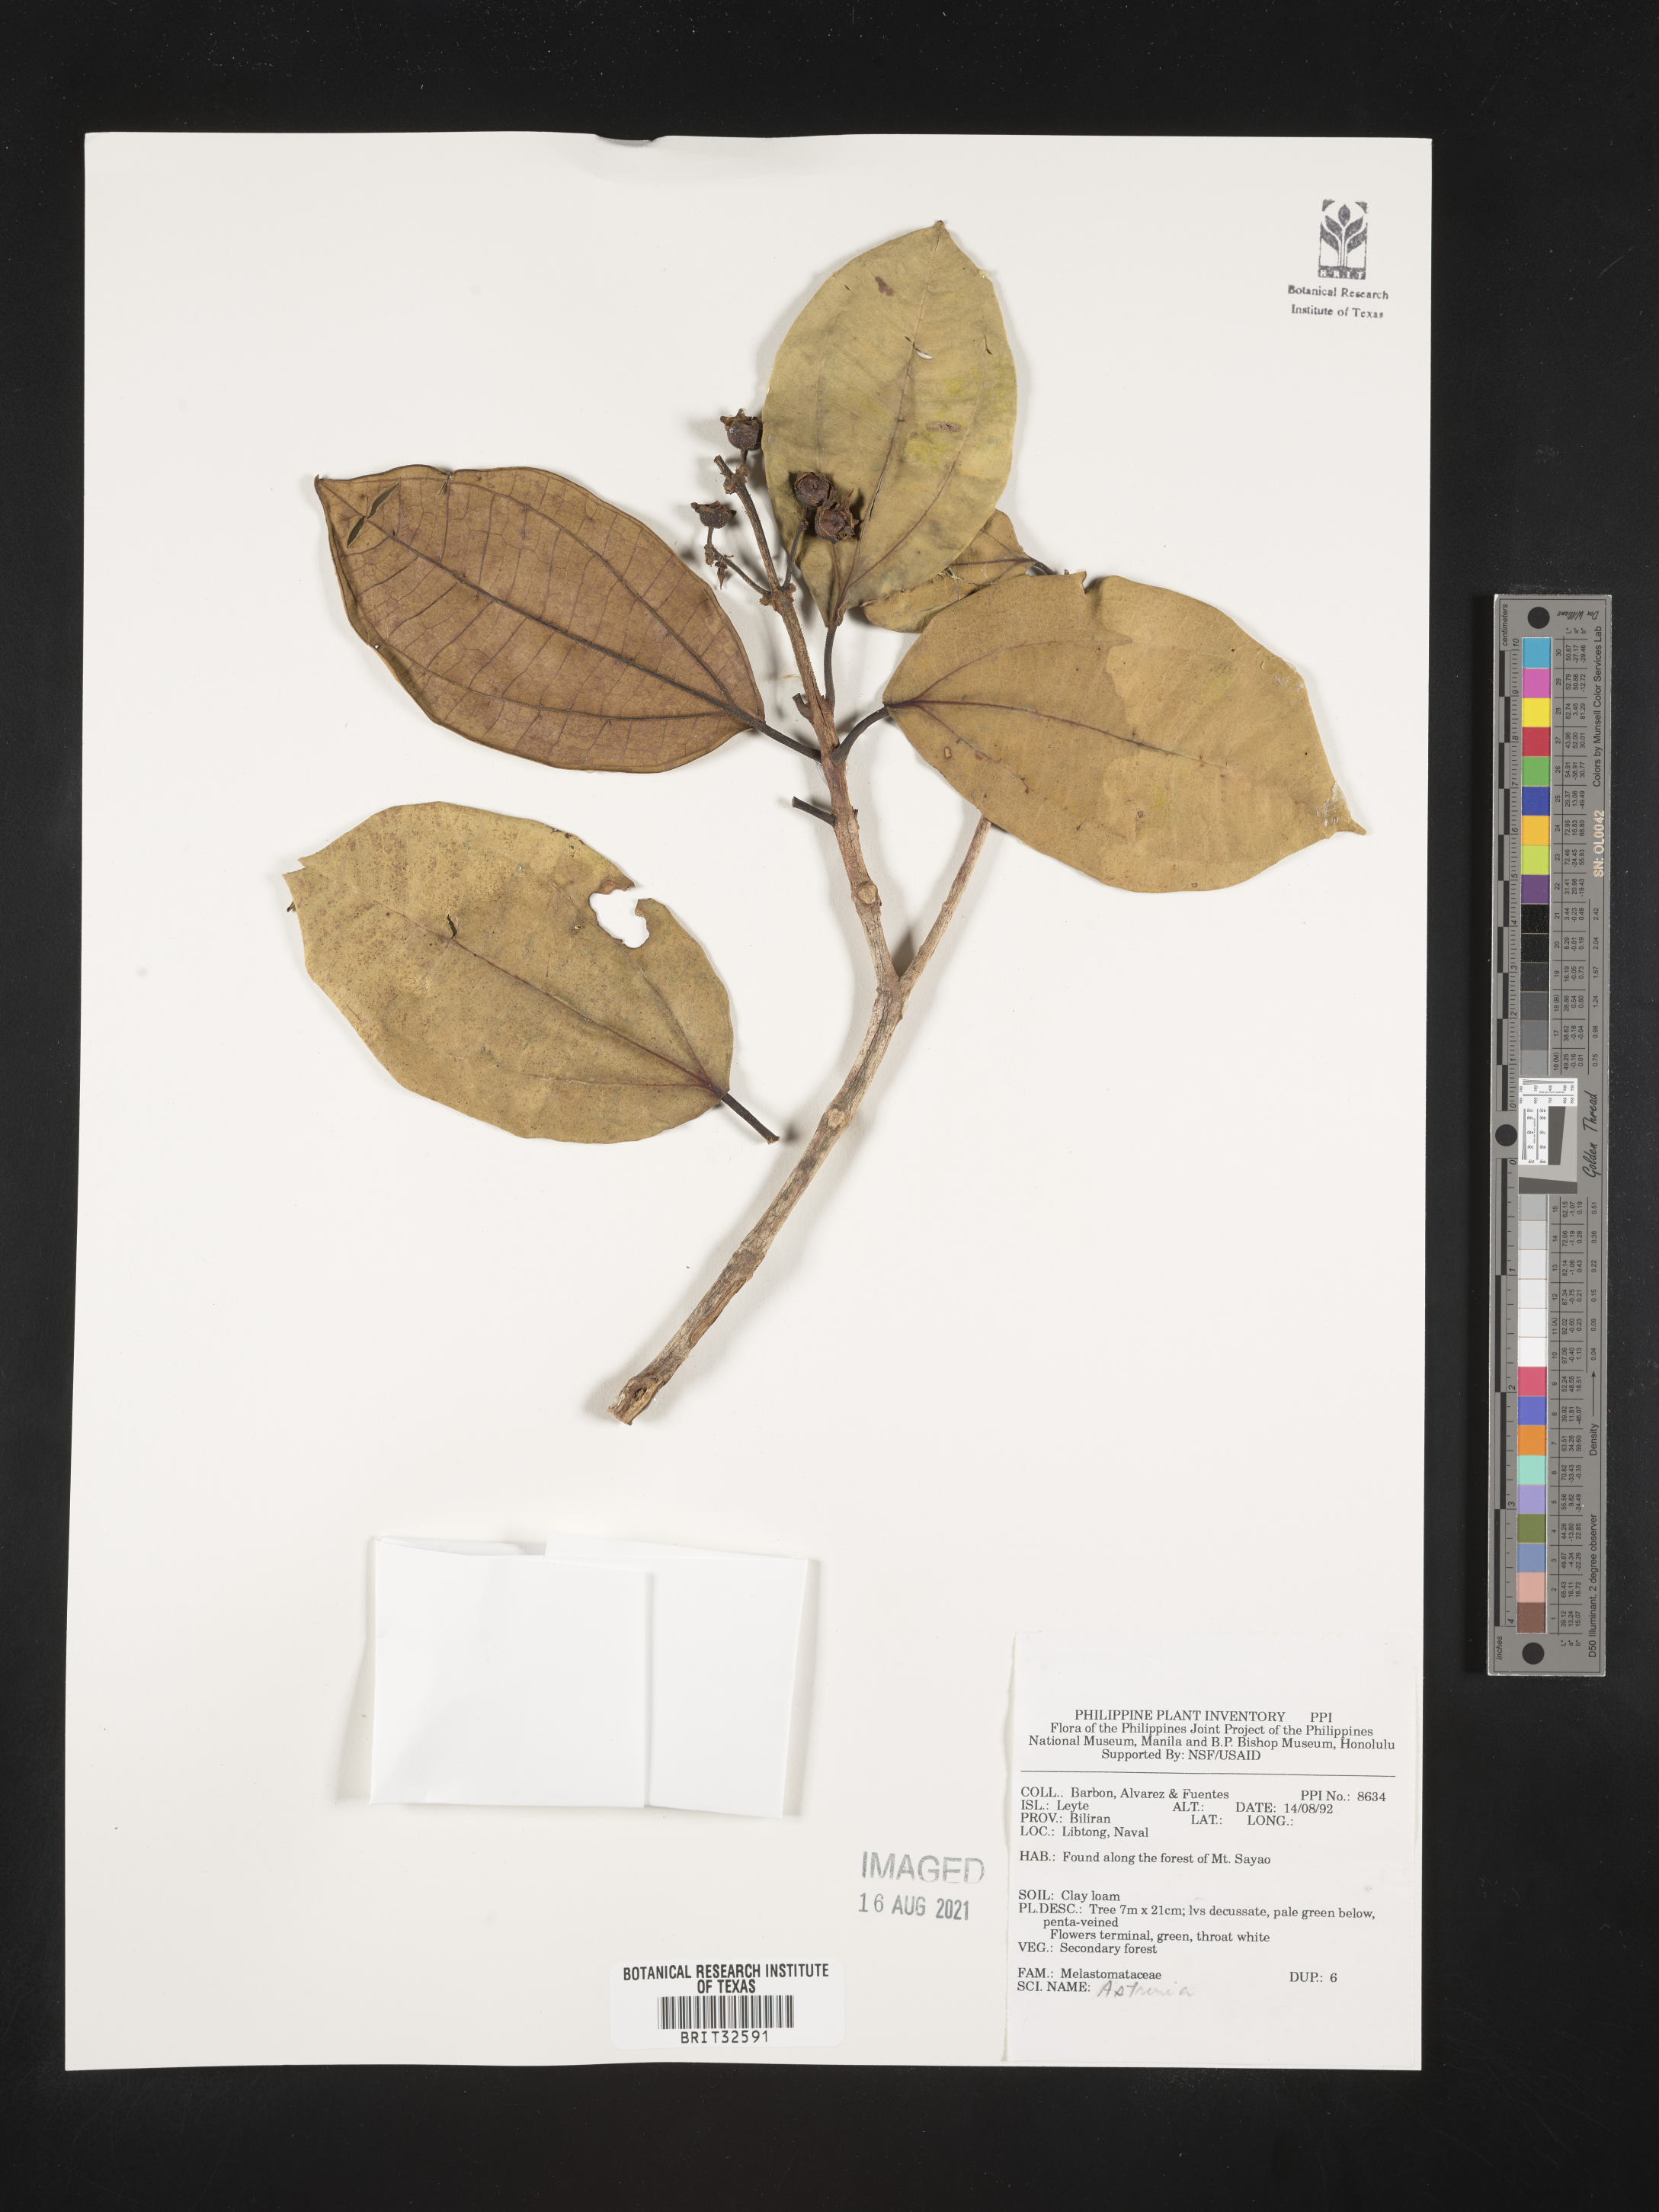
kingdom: Plantae
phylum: Tracheophyta
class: Magnoliopsida
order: Myrtales
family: Melastomataceae
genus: Astronia
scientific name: Astronia
